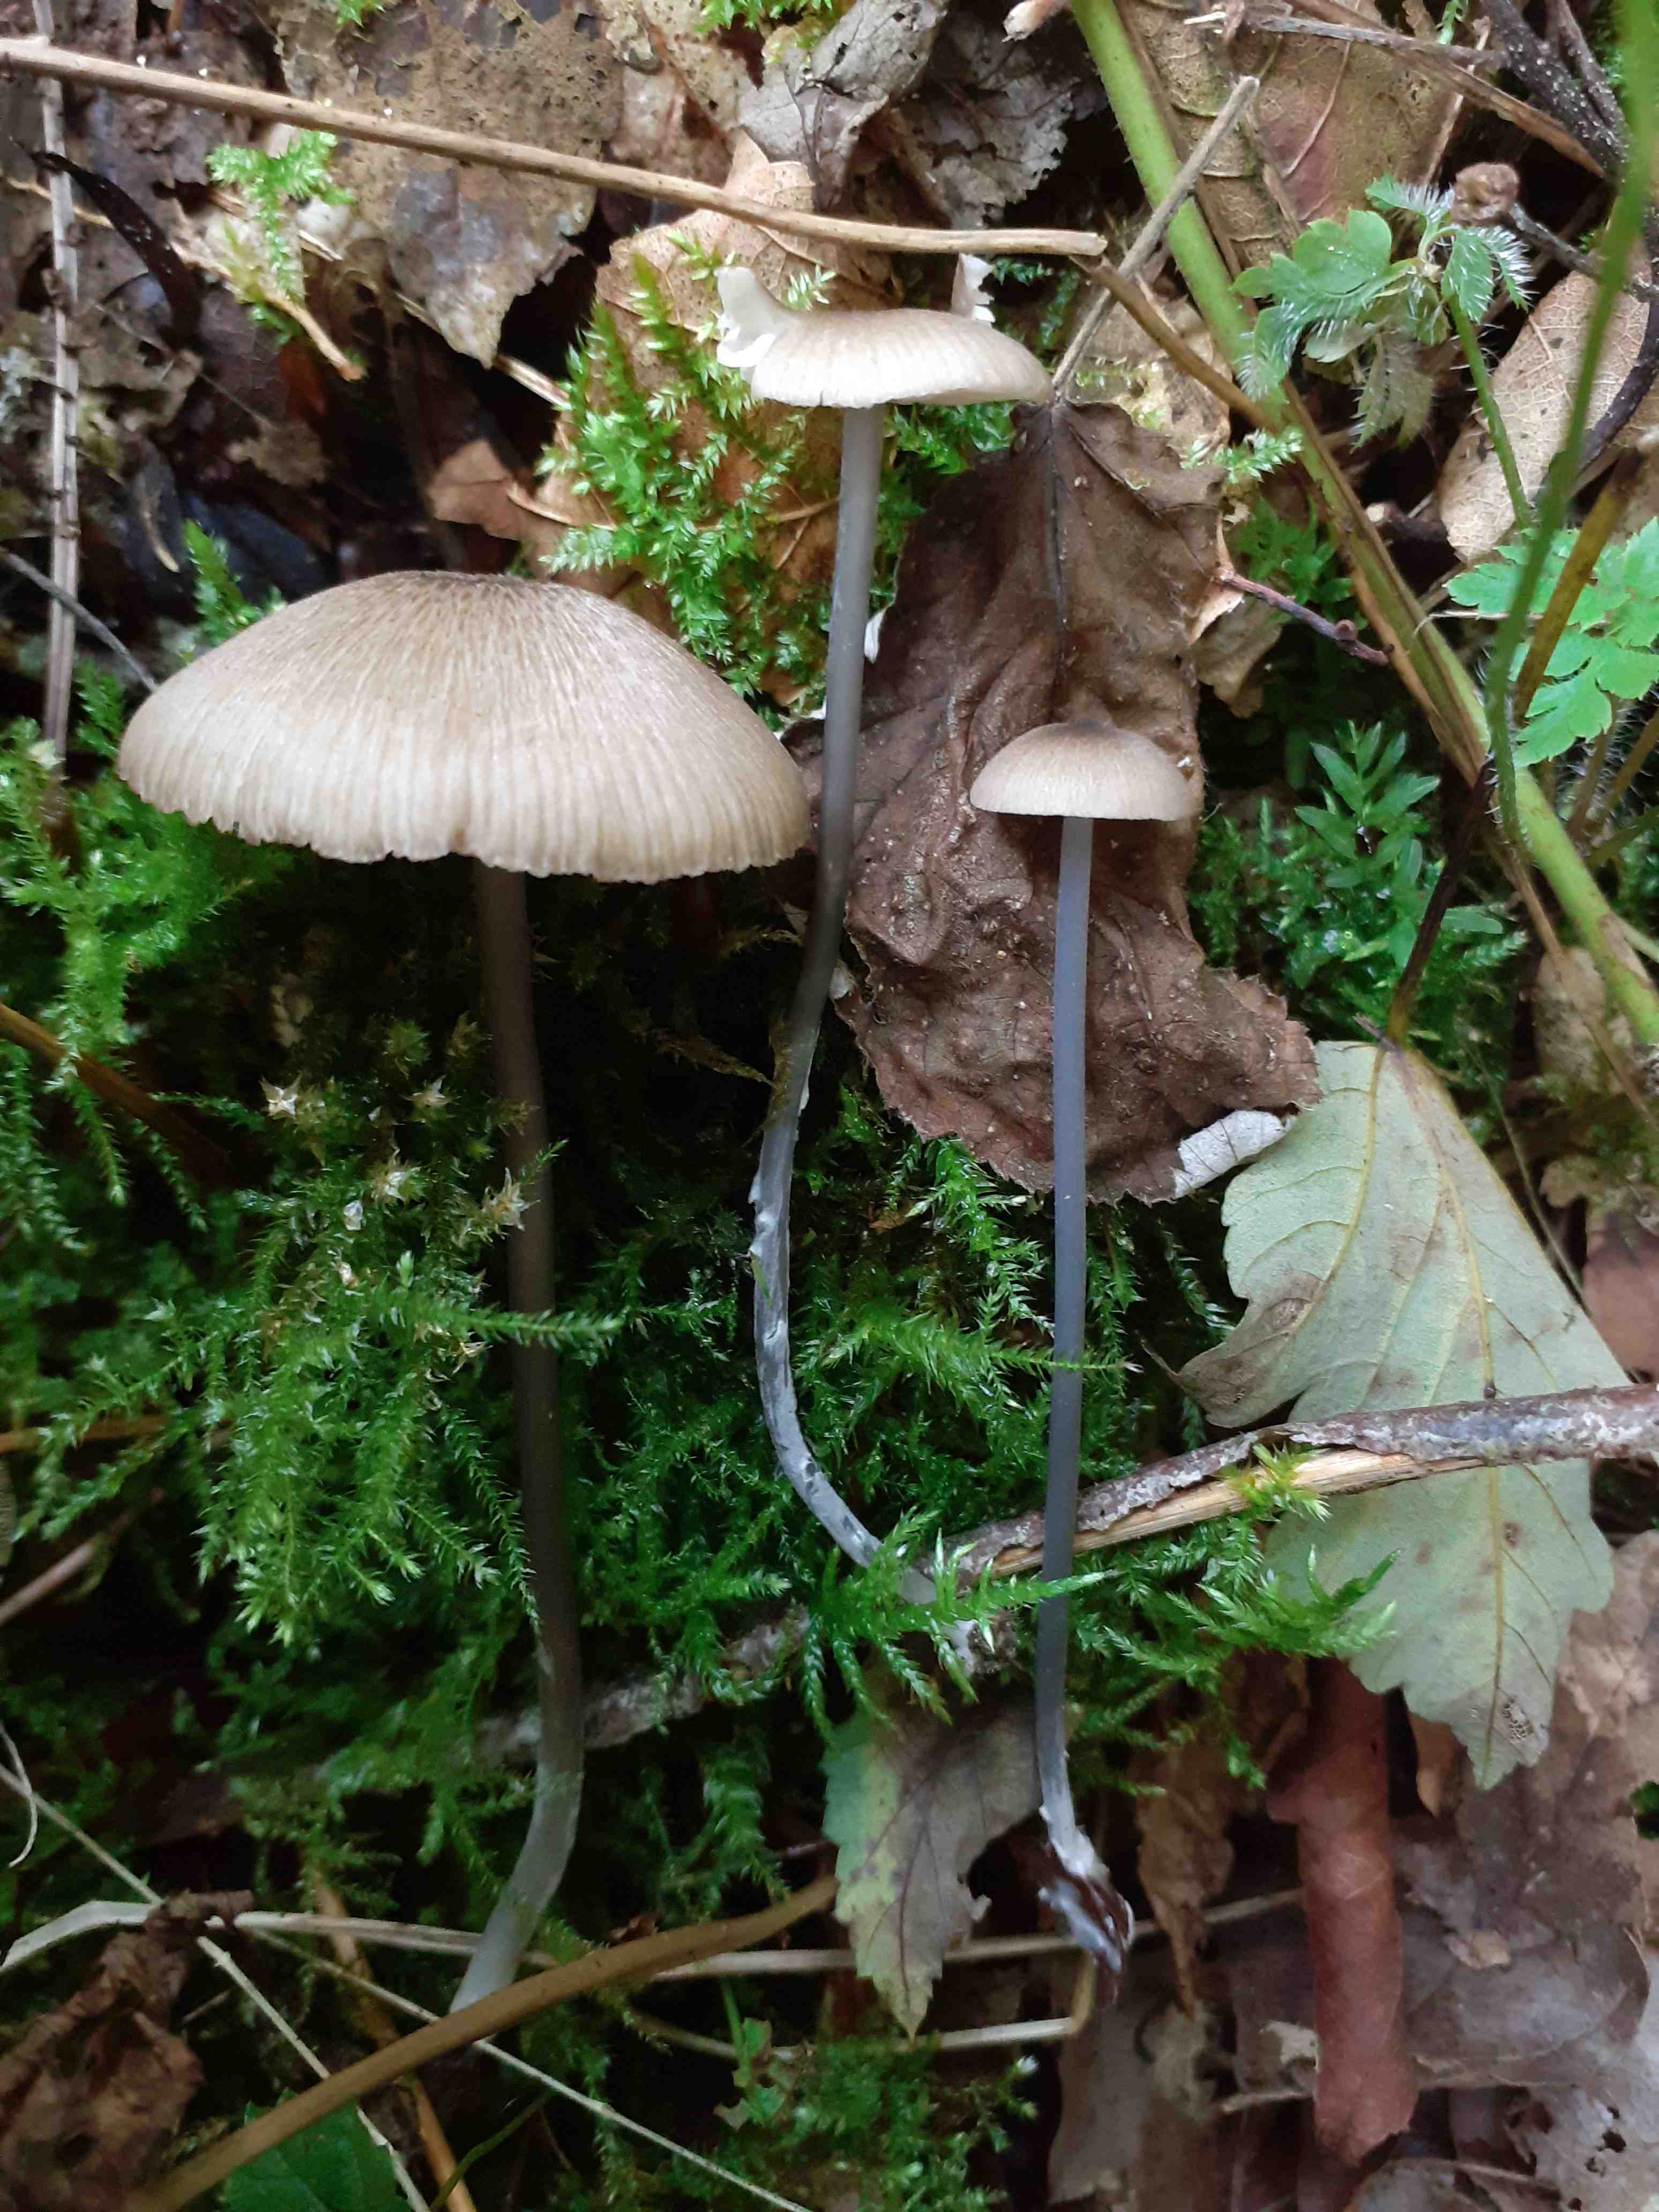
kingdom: Fungi
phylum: Basidiomycota
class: Agaricomycetes
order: Agaricales
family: Entolomataceae
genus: Entoloma
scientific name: Entoloma lividocyanulum
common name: mørkøjet rødblad
